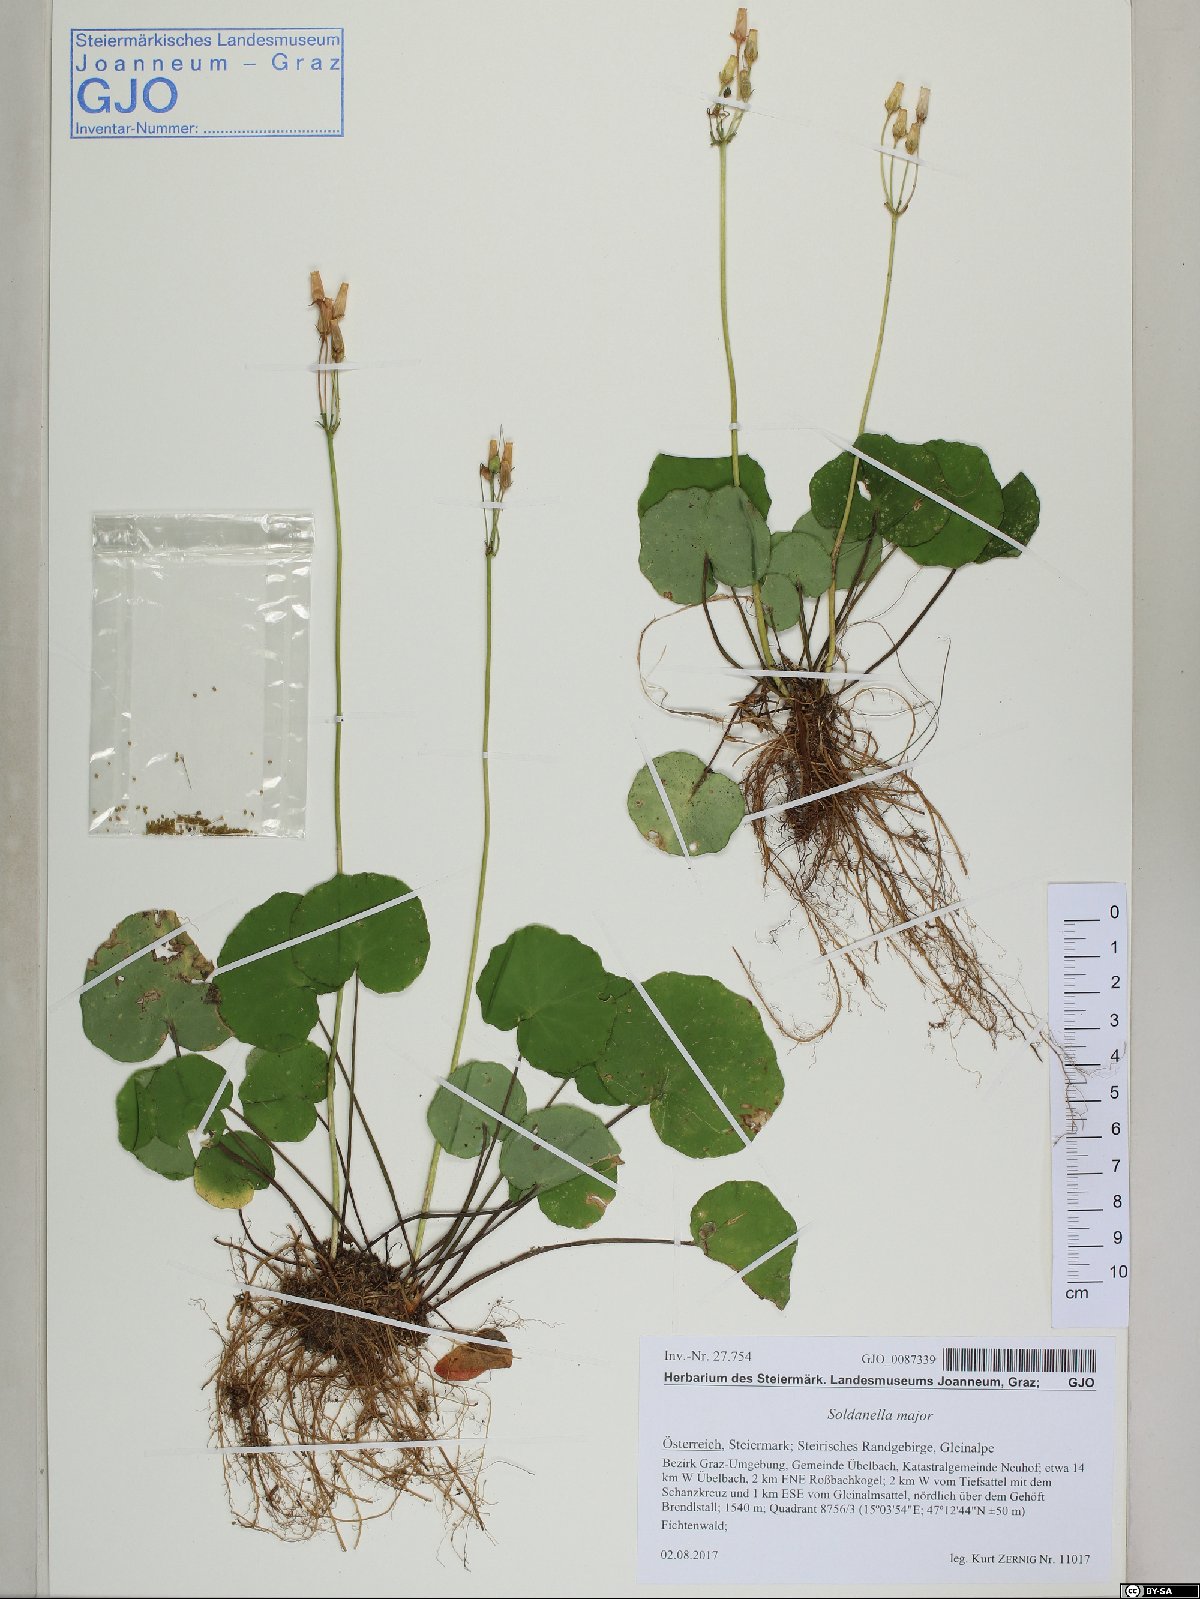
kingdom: Plantae
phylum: Tracheophyta
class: Magnoliopsida
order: Ericales
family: Primulaceae
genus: Soldanella
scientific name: Soldanella major
